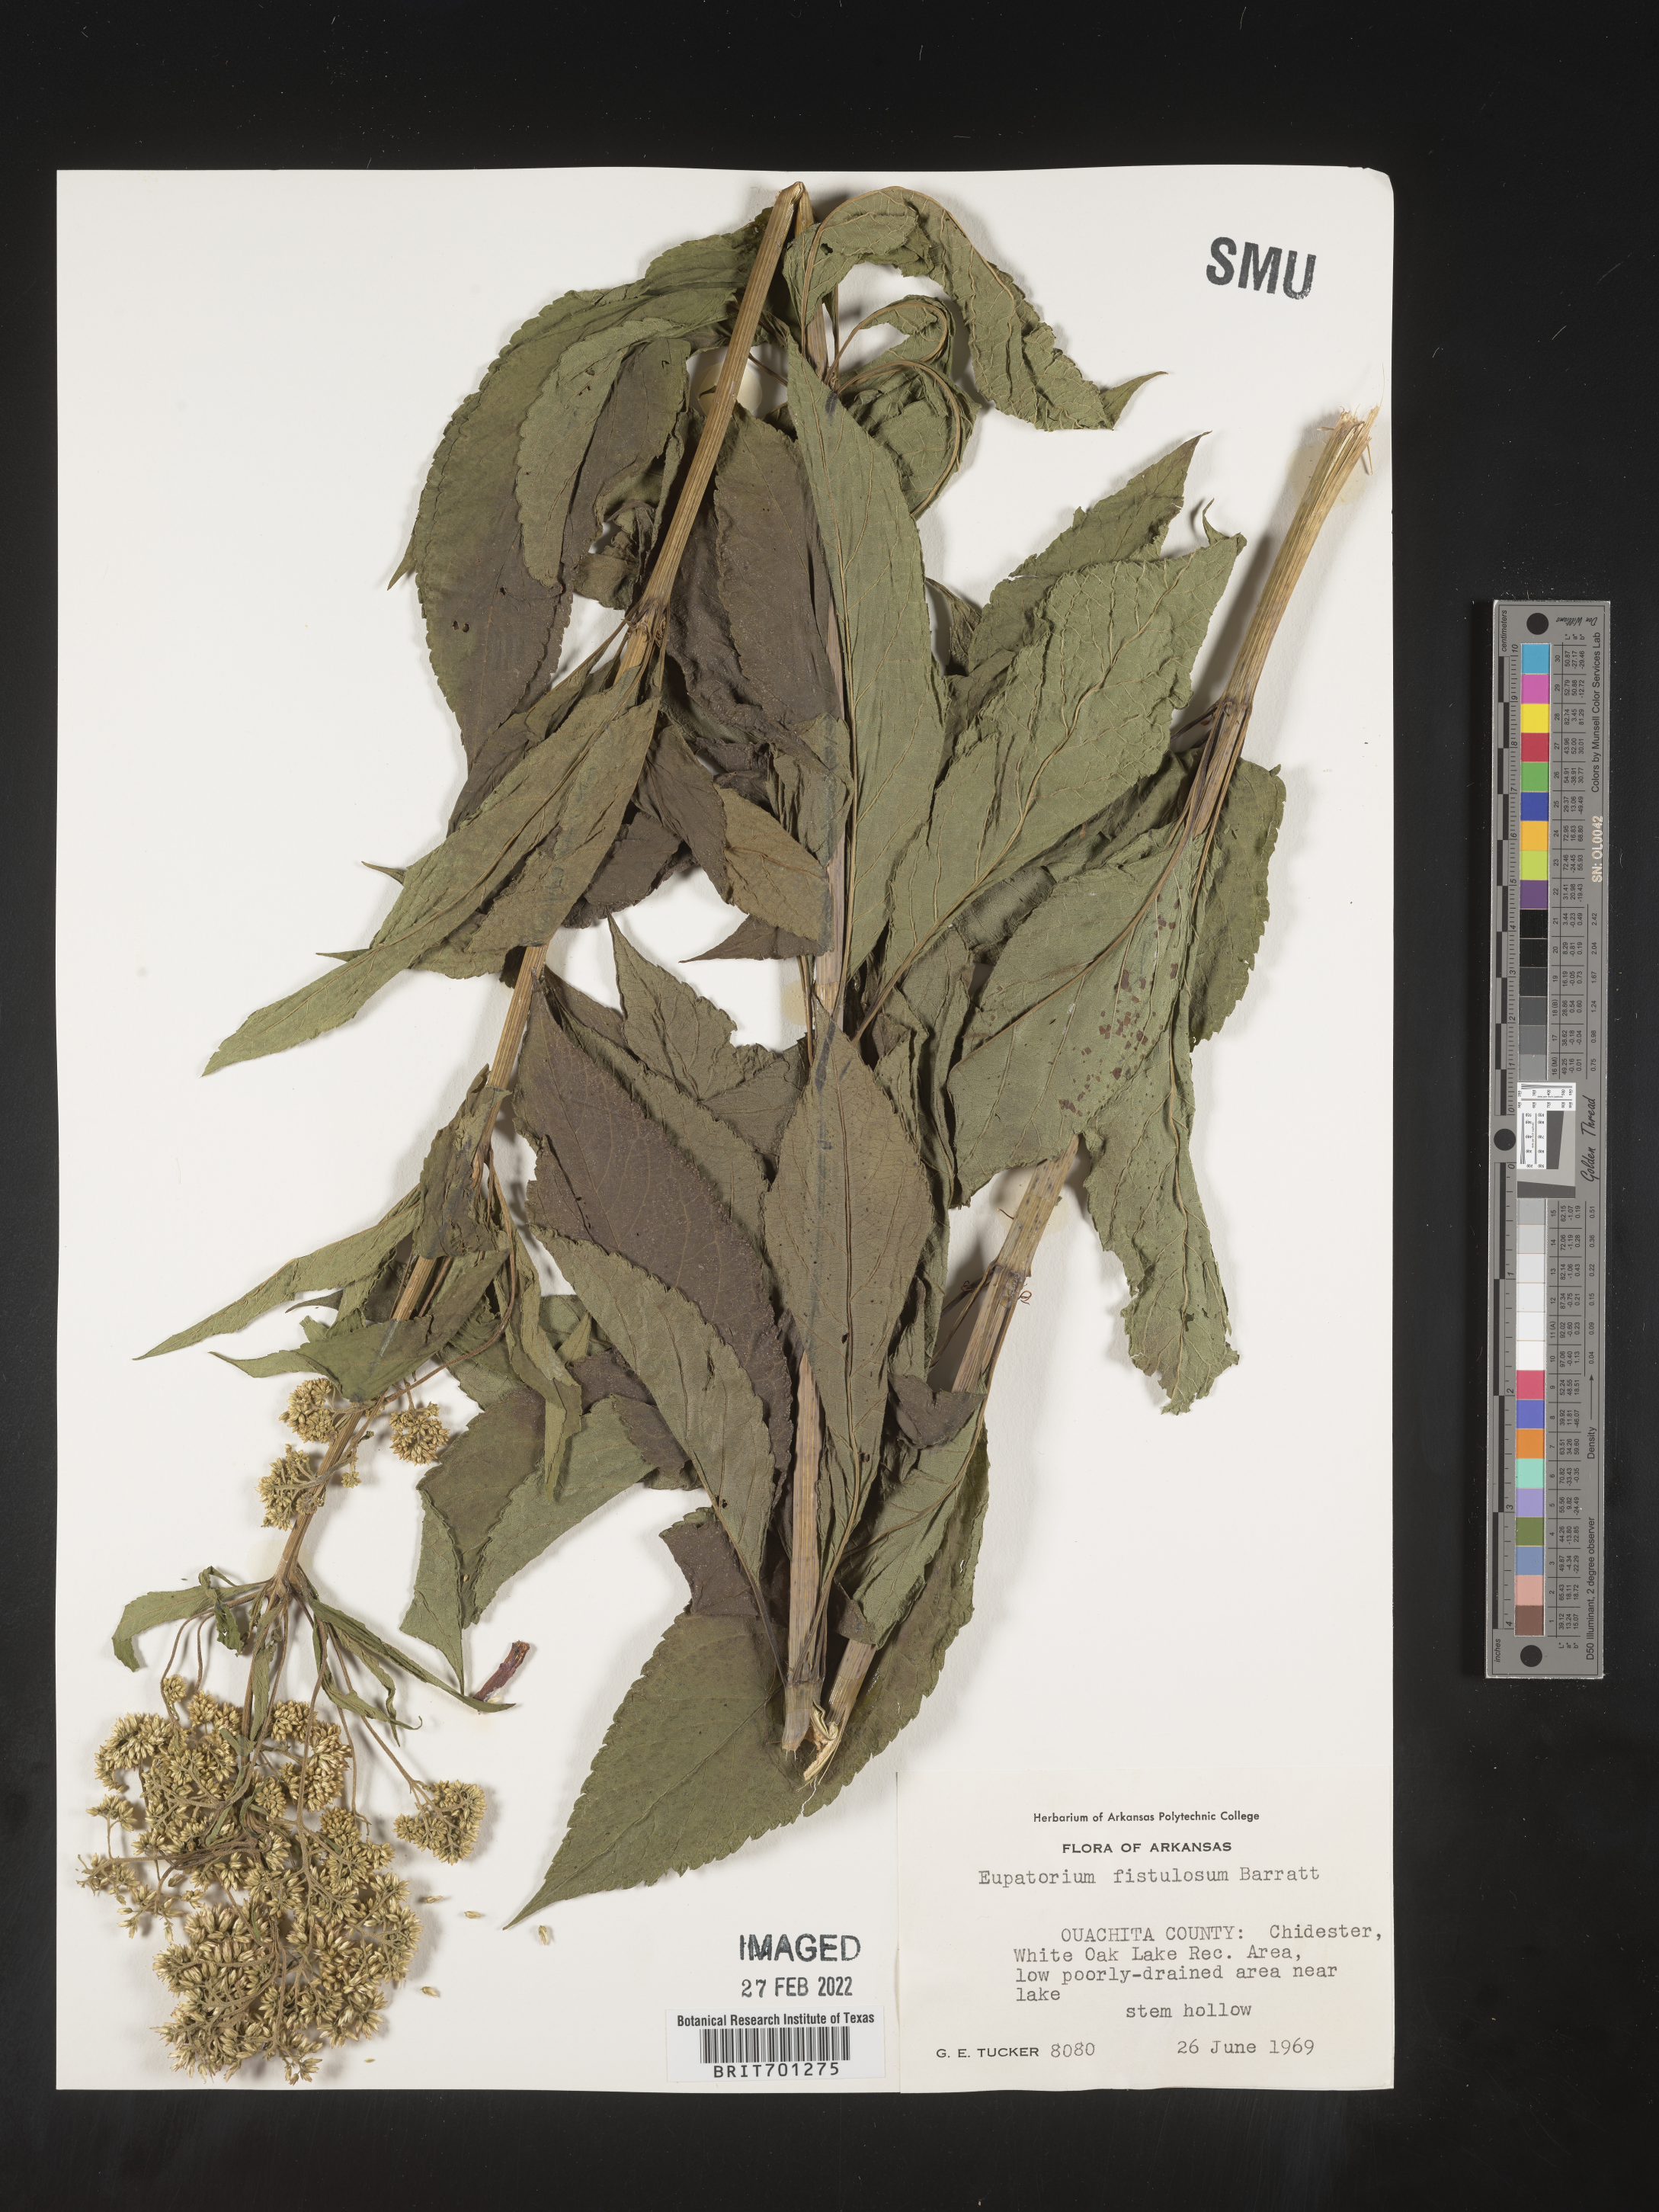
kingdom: Plantae
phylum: Tracheophyta
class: Magnoliopsida
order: Asterales
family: Asteraceae
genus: Eutrochium
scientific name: Eutrochium fistulosum
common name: Trumpetweed
